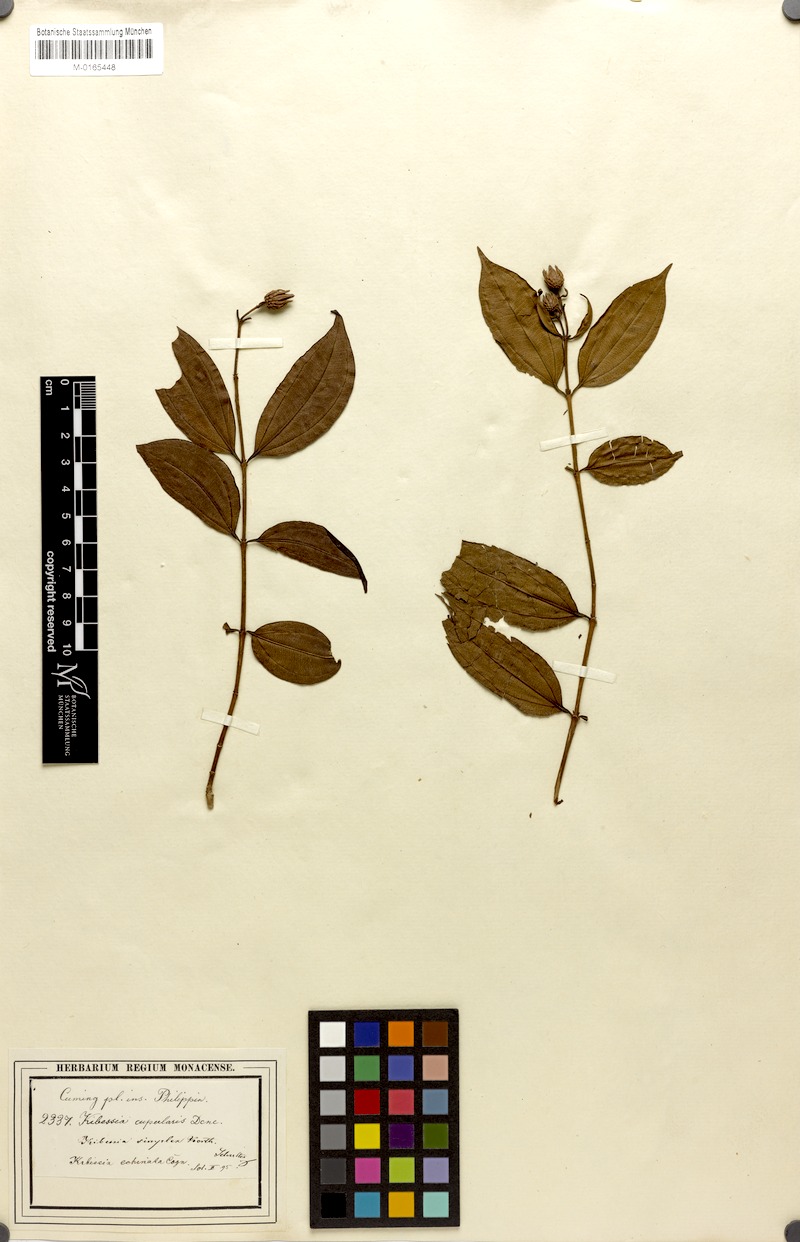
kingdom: Plantae
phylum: Tracheophyta
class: Magnoliopsida
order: Myrtales
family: Melastomataceae
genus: Pternandra
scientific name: Pternandra echinata
